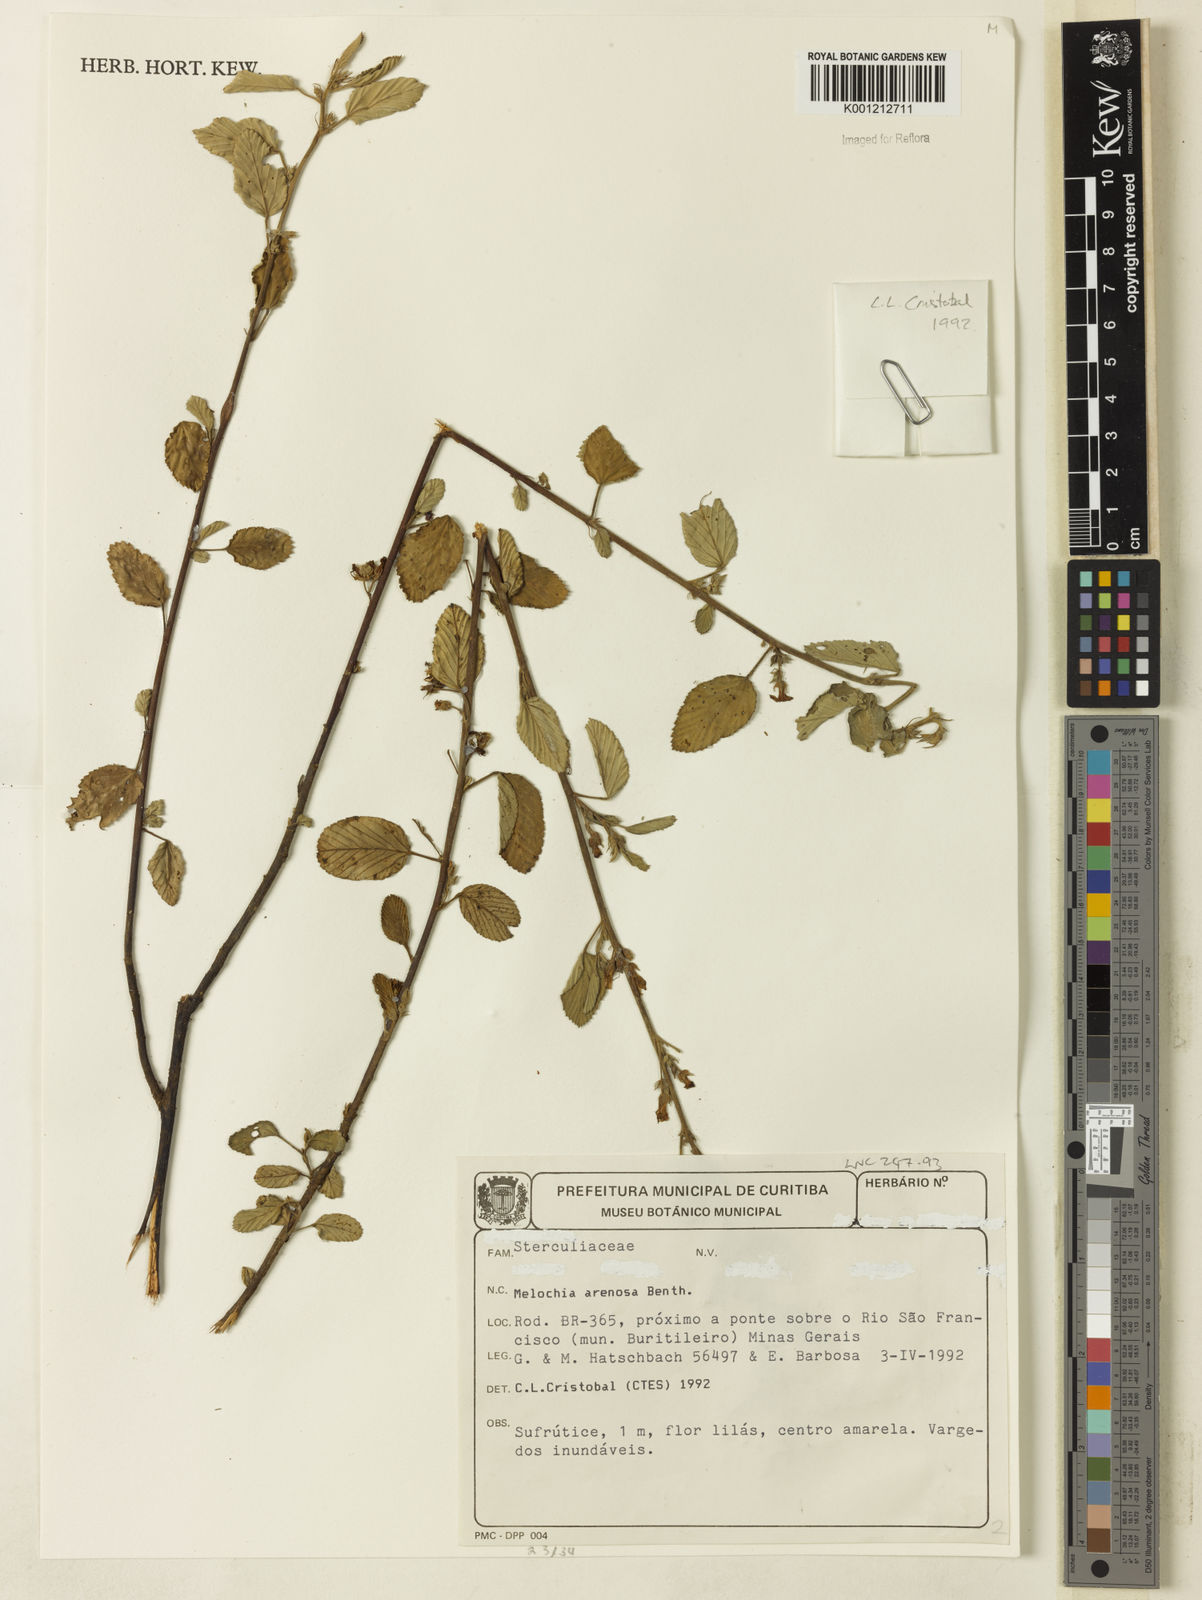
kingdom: Plantae
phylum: Tracheophyta
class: Magnoliopsida
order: Malvales
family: Malvaceae
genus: Melochia
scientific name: Melochia arenosa
